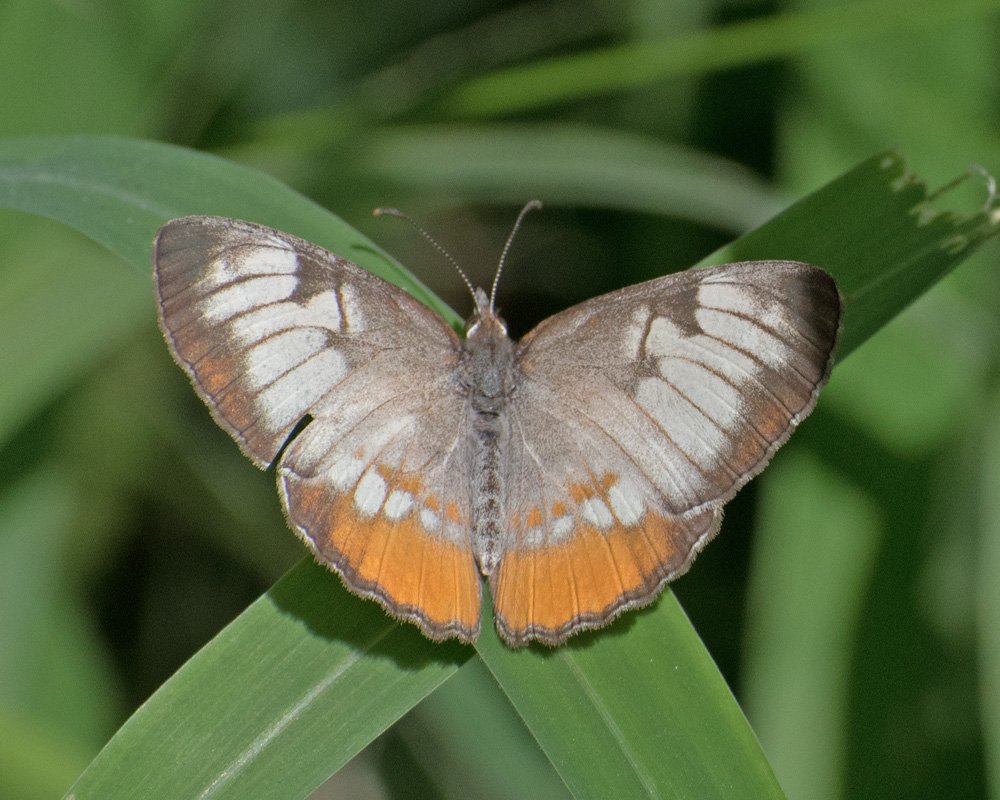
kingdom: Animalia
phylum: Arthropoda
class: Insecta
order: Lepidoptera
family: Nymphalidae
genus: Mestra
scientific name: Mestra amymone
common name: Common Mestra
